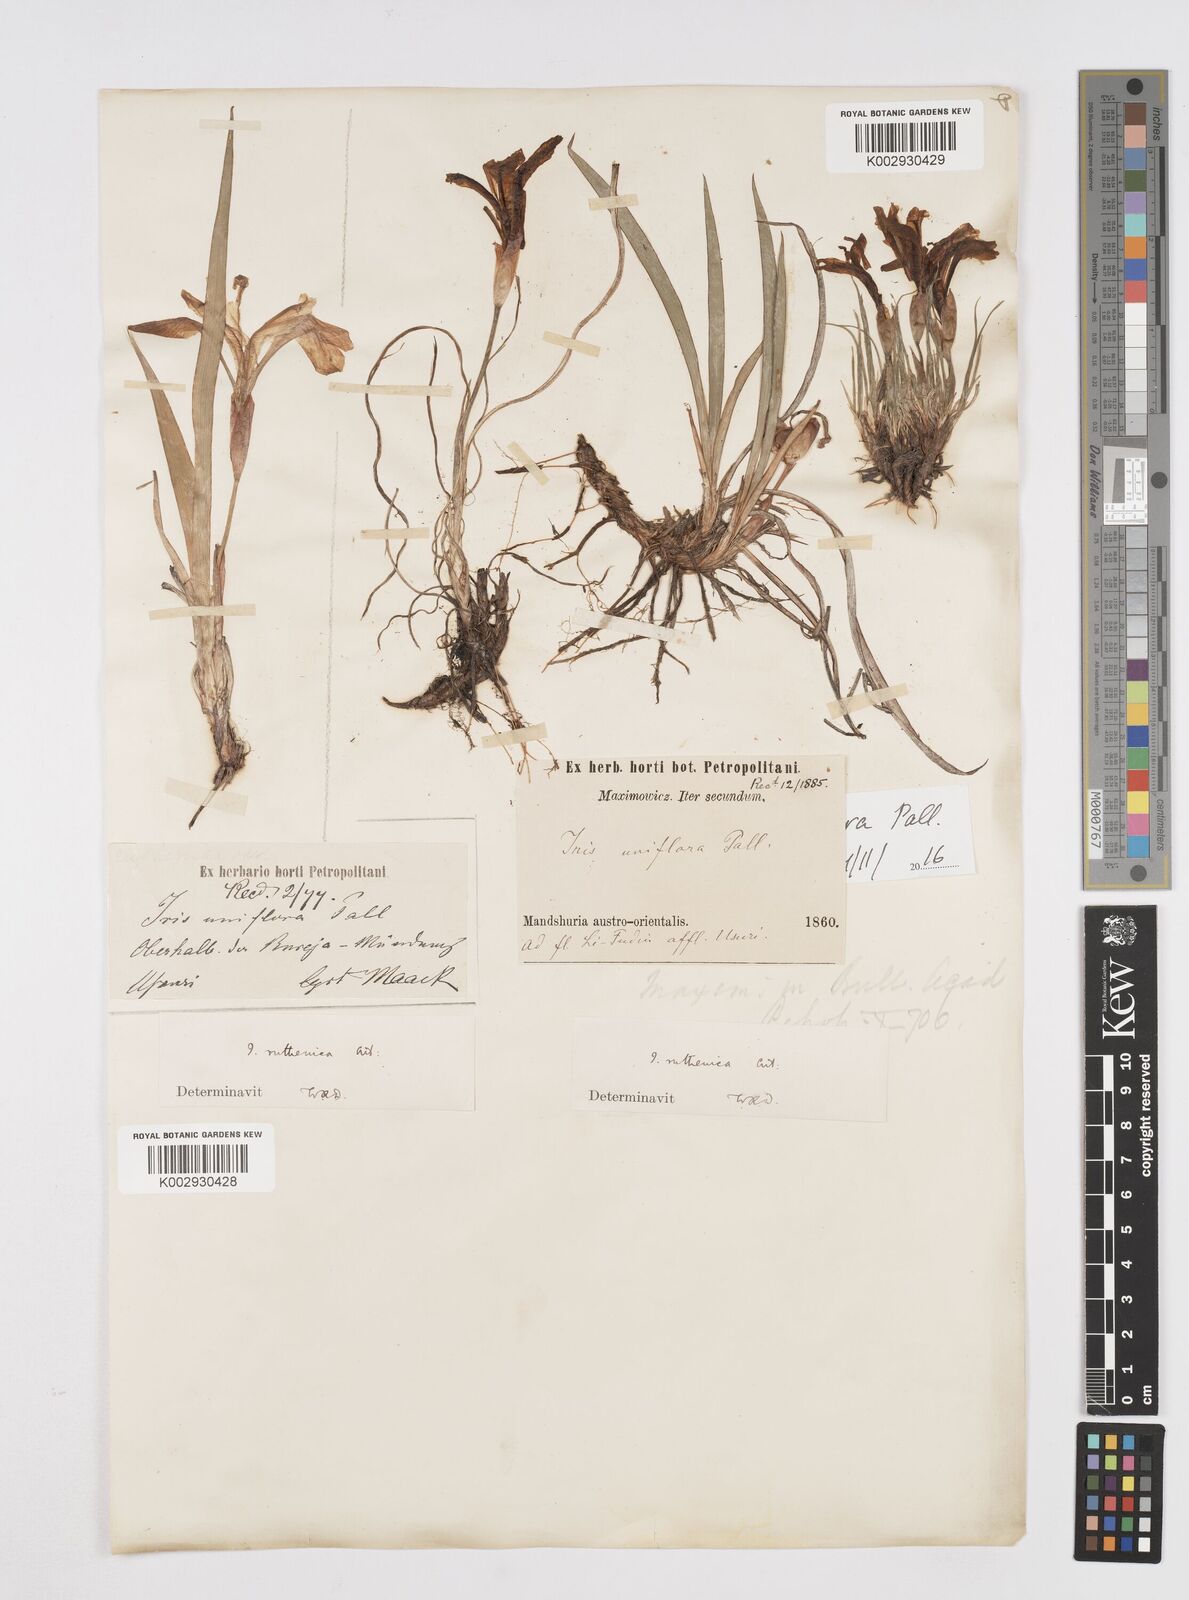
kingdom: Plantae
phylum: Tracheophyta
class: Liliopsida
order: Asparagales
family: Iridaceae
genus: Iris
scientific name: Iris uniflora
